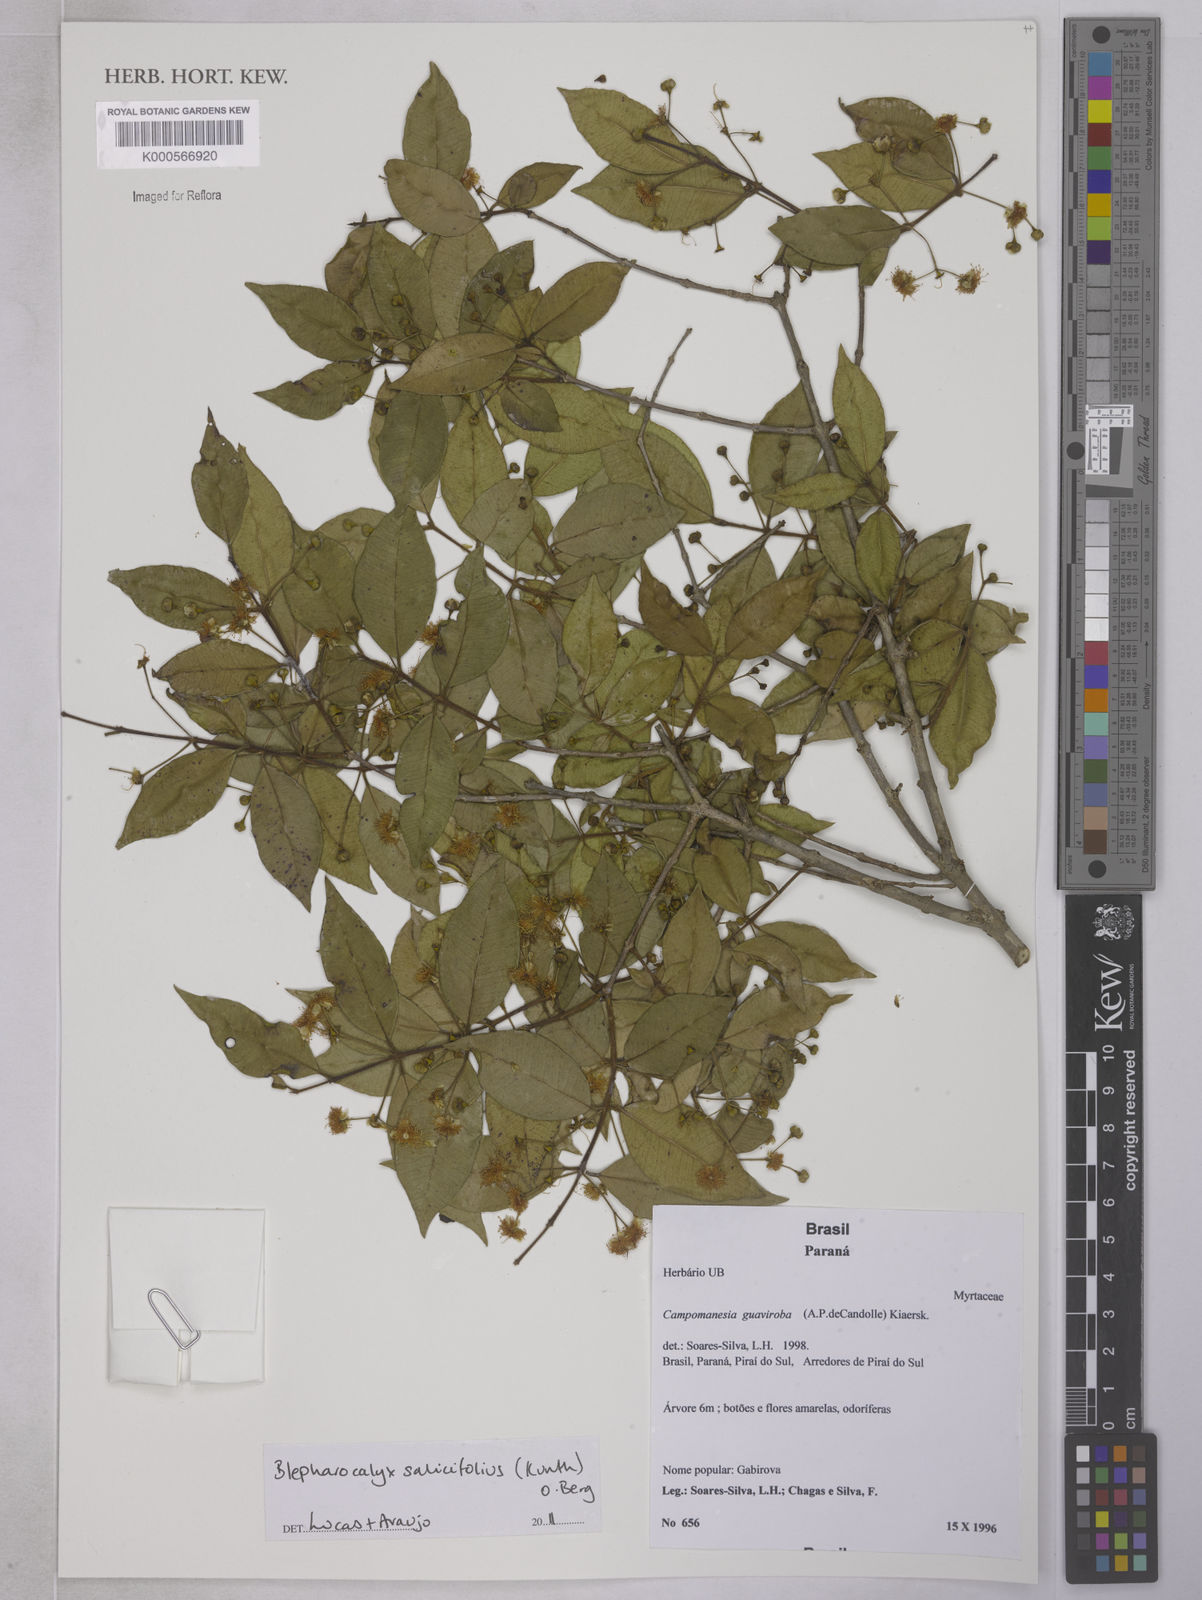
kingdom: Plantae
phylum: Tracheophyta
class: Magnoliopsida
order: Myrtales
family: Myrtaceae
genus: Blepharocalyx
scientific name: Blepharocalyx salicifolius
